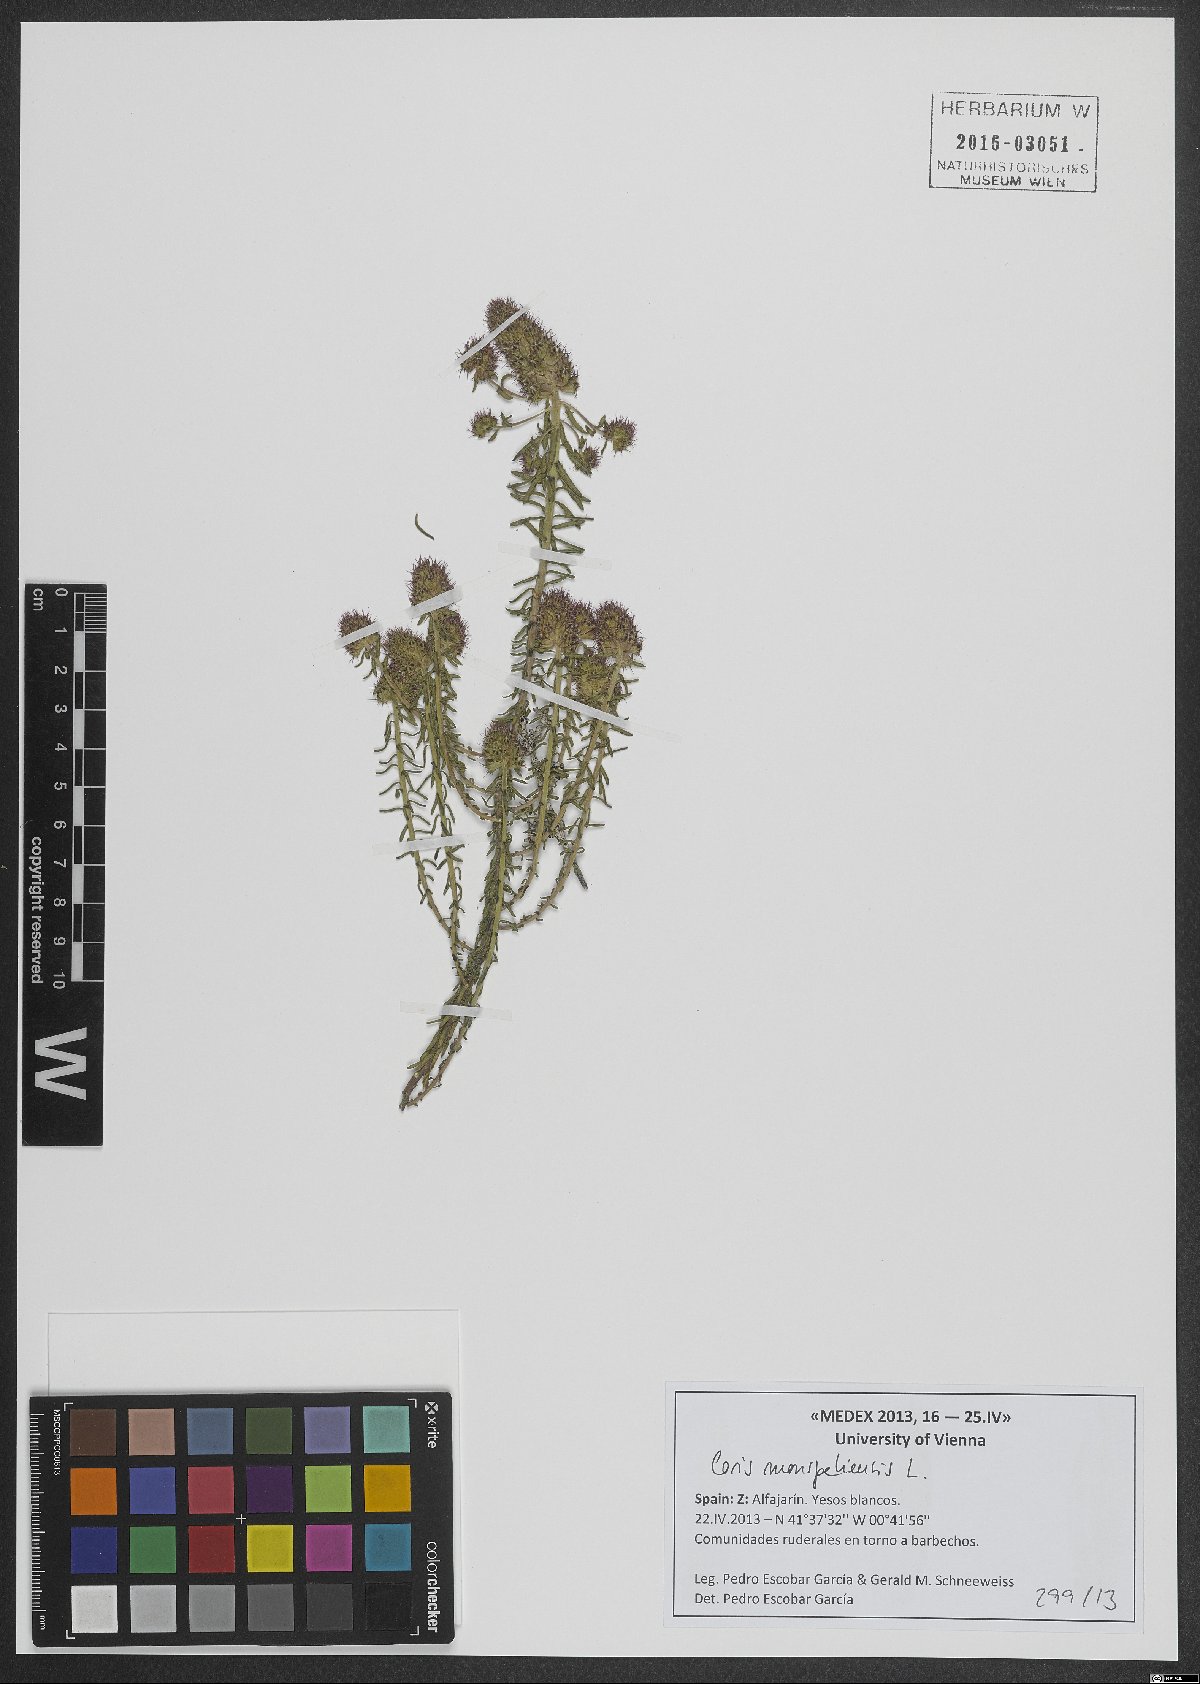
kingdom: Plantae
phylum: Tracheophyta
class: Magnoliopsida
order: Ericales
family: Primulaceae
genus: Coris
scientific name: Coris monspeliensis
